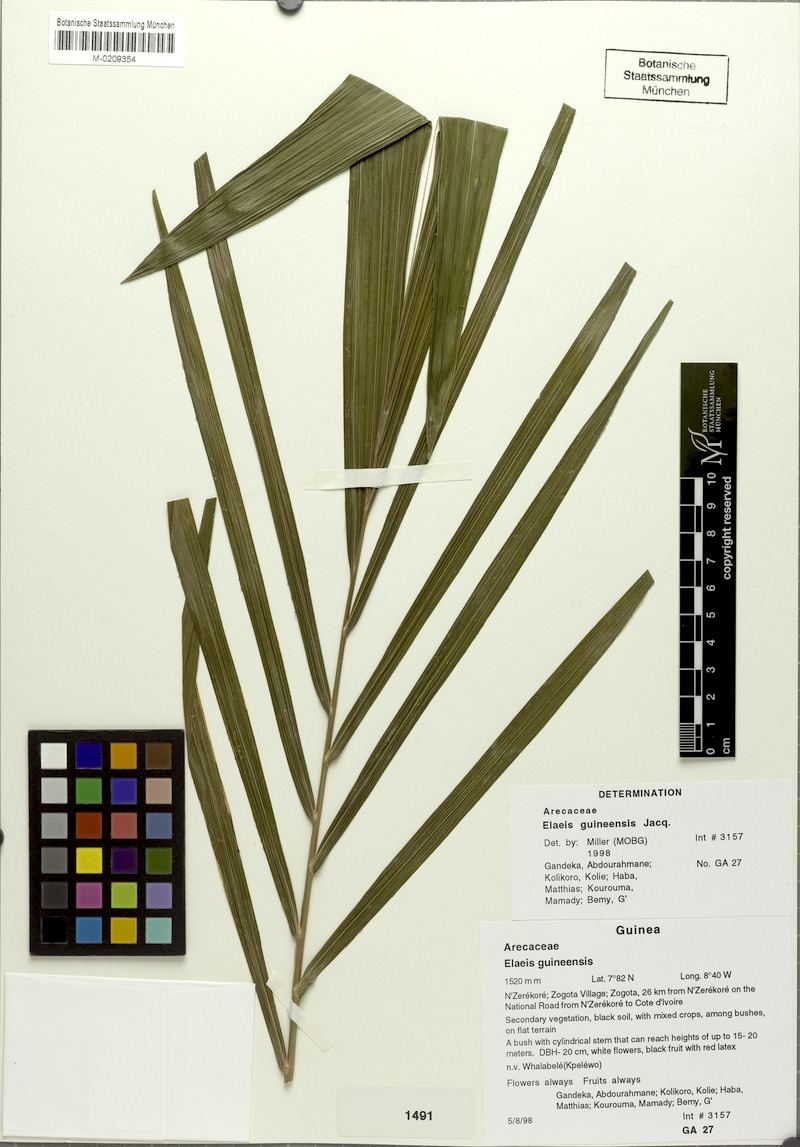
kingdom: Plantae
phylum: Tracheophyta
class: Liliopsida
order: Arecales
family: Arecaceae
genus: Elaeis
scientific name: Elaeis guineensis
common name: Oil palm
